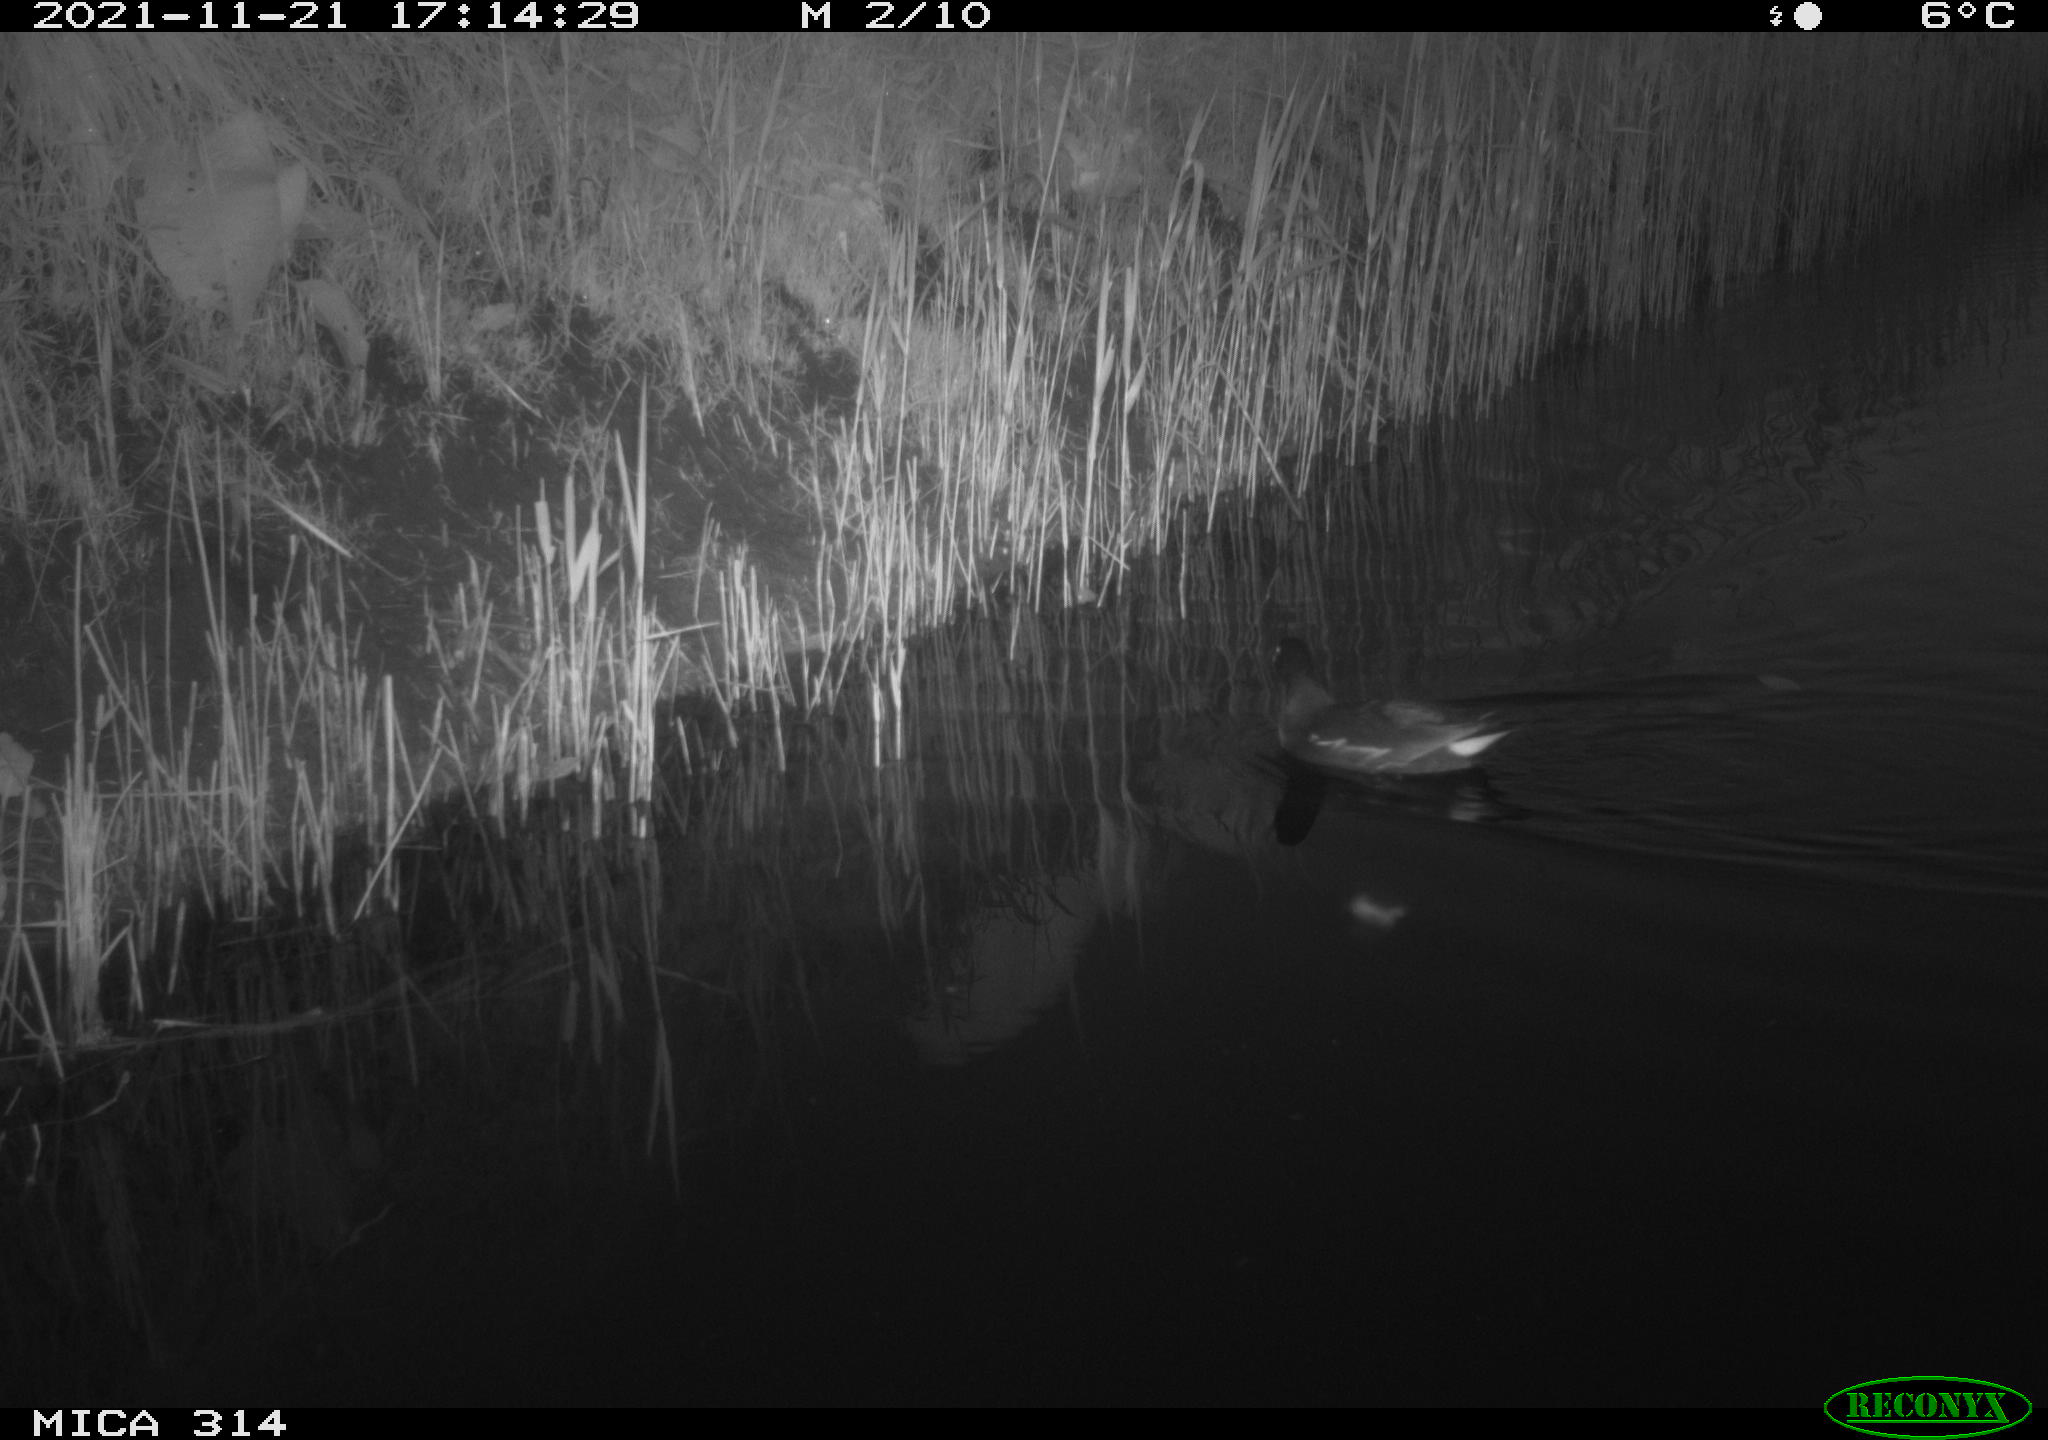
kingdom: Animalia
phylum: Chordata
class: Aves
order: Gruiformes
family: Rallidae
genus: Gallinula
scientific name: Gallinula chloropus
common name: Common moorhen
